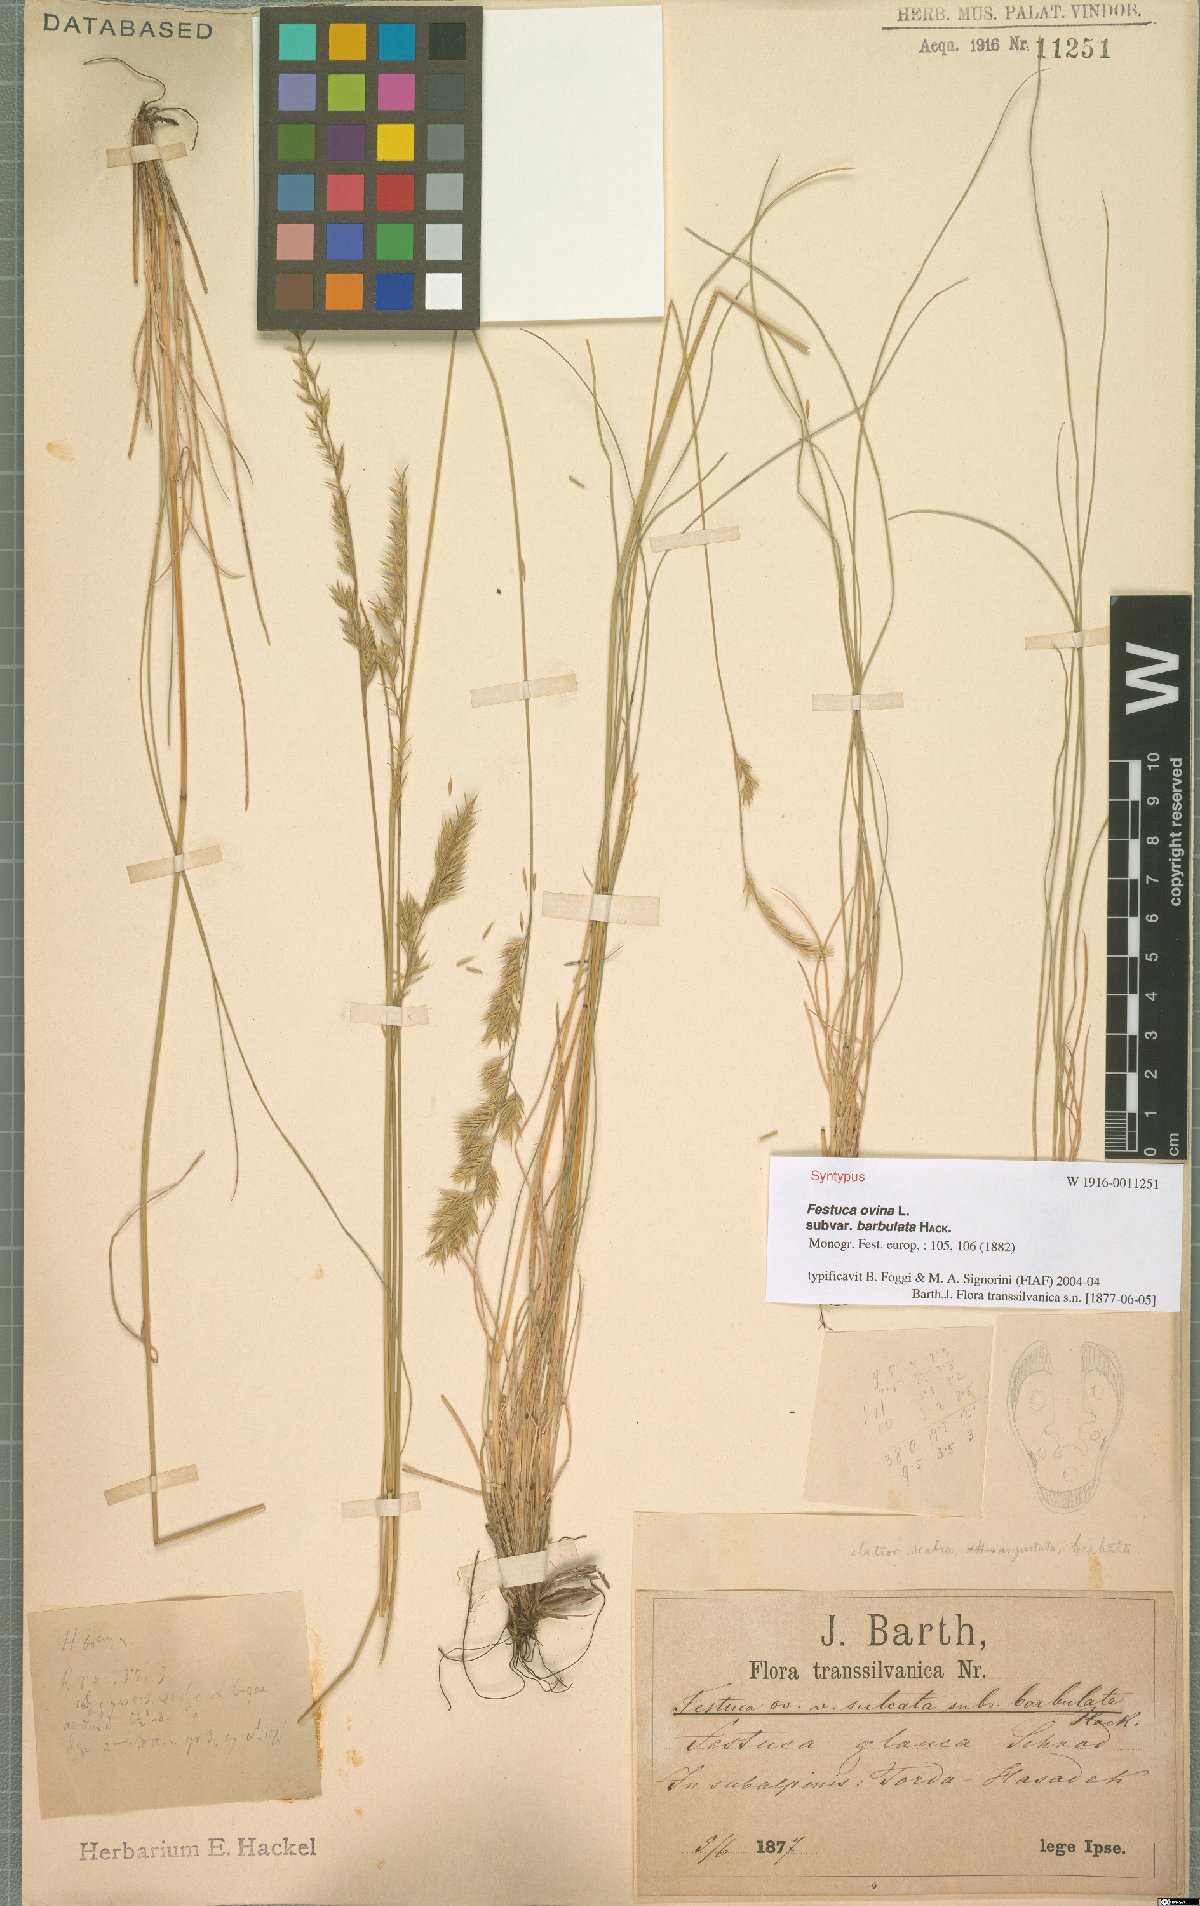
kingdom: Plantae
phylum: Tracheophyta
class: Liliopsida
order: Poales
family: Poaceae
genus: Festuca
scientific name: Festuca ovina
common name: Sheep fescue
